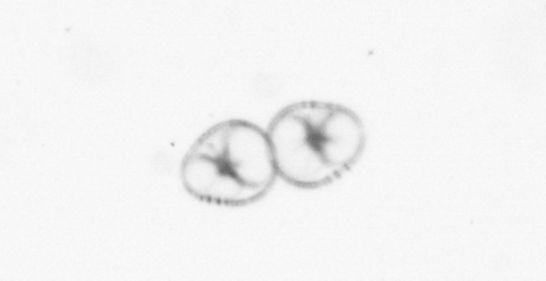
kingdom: Chromista
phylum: Myzozoa
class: Dinophyceae
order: Noctilucales
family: Noctilucaceae
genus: Noctiluca
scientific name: Noctiluca scintillans
